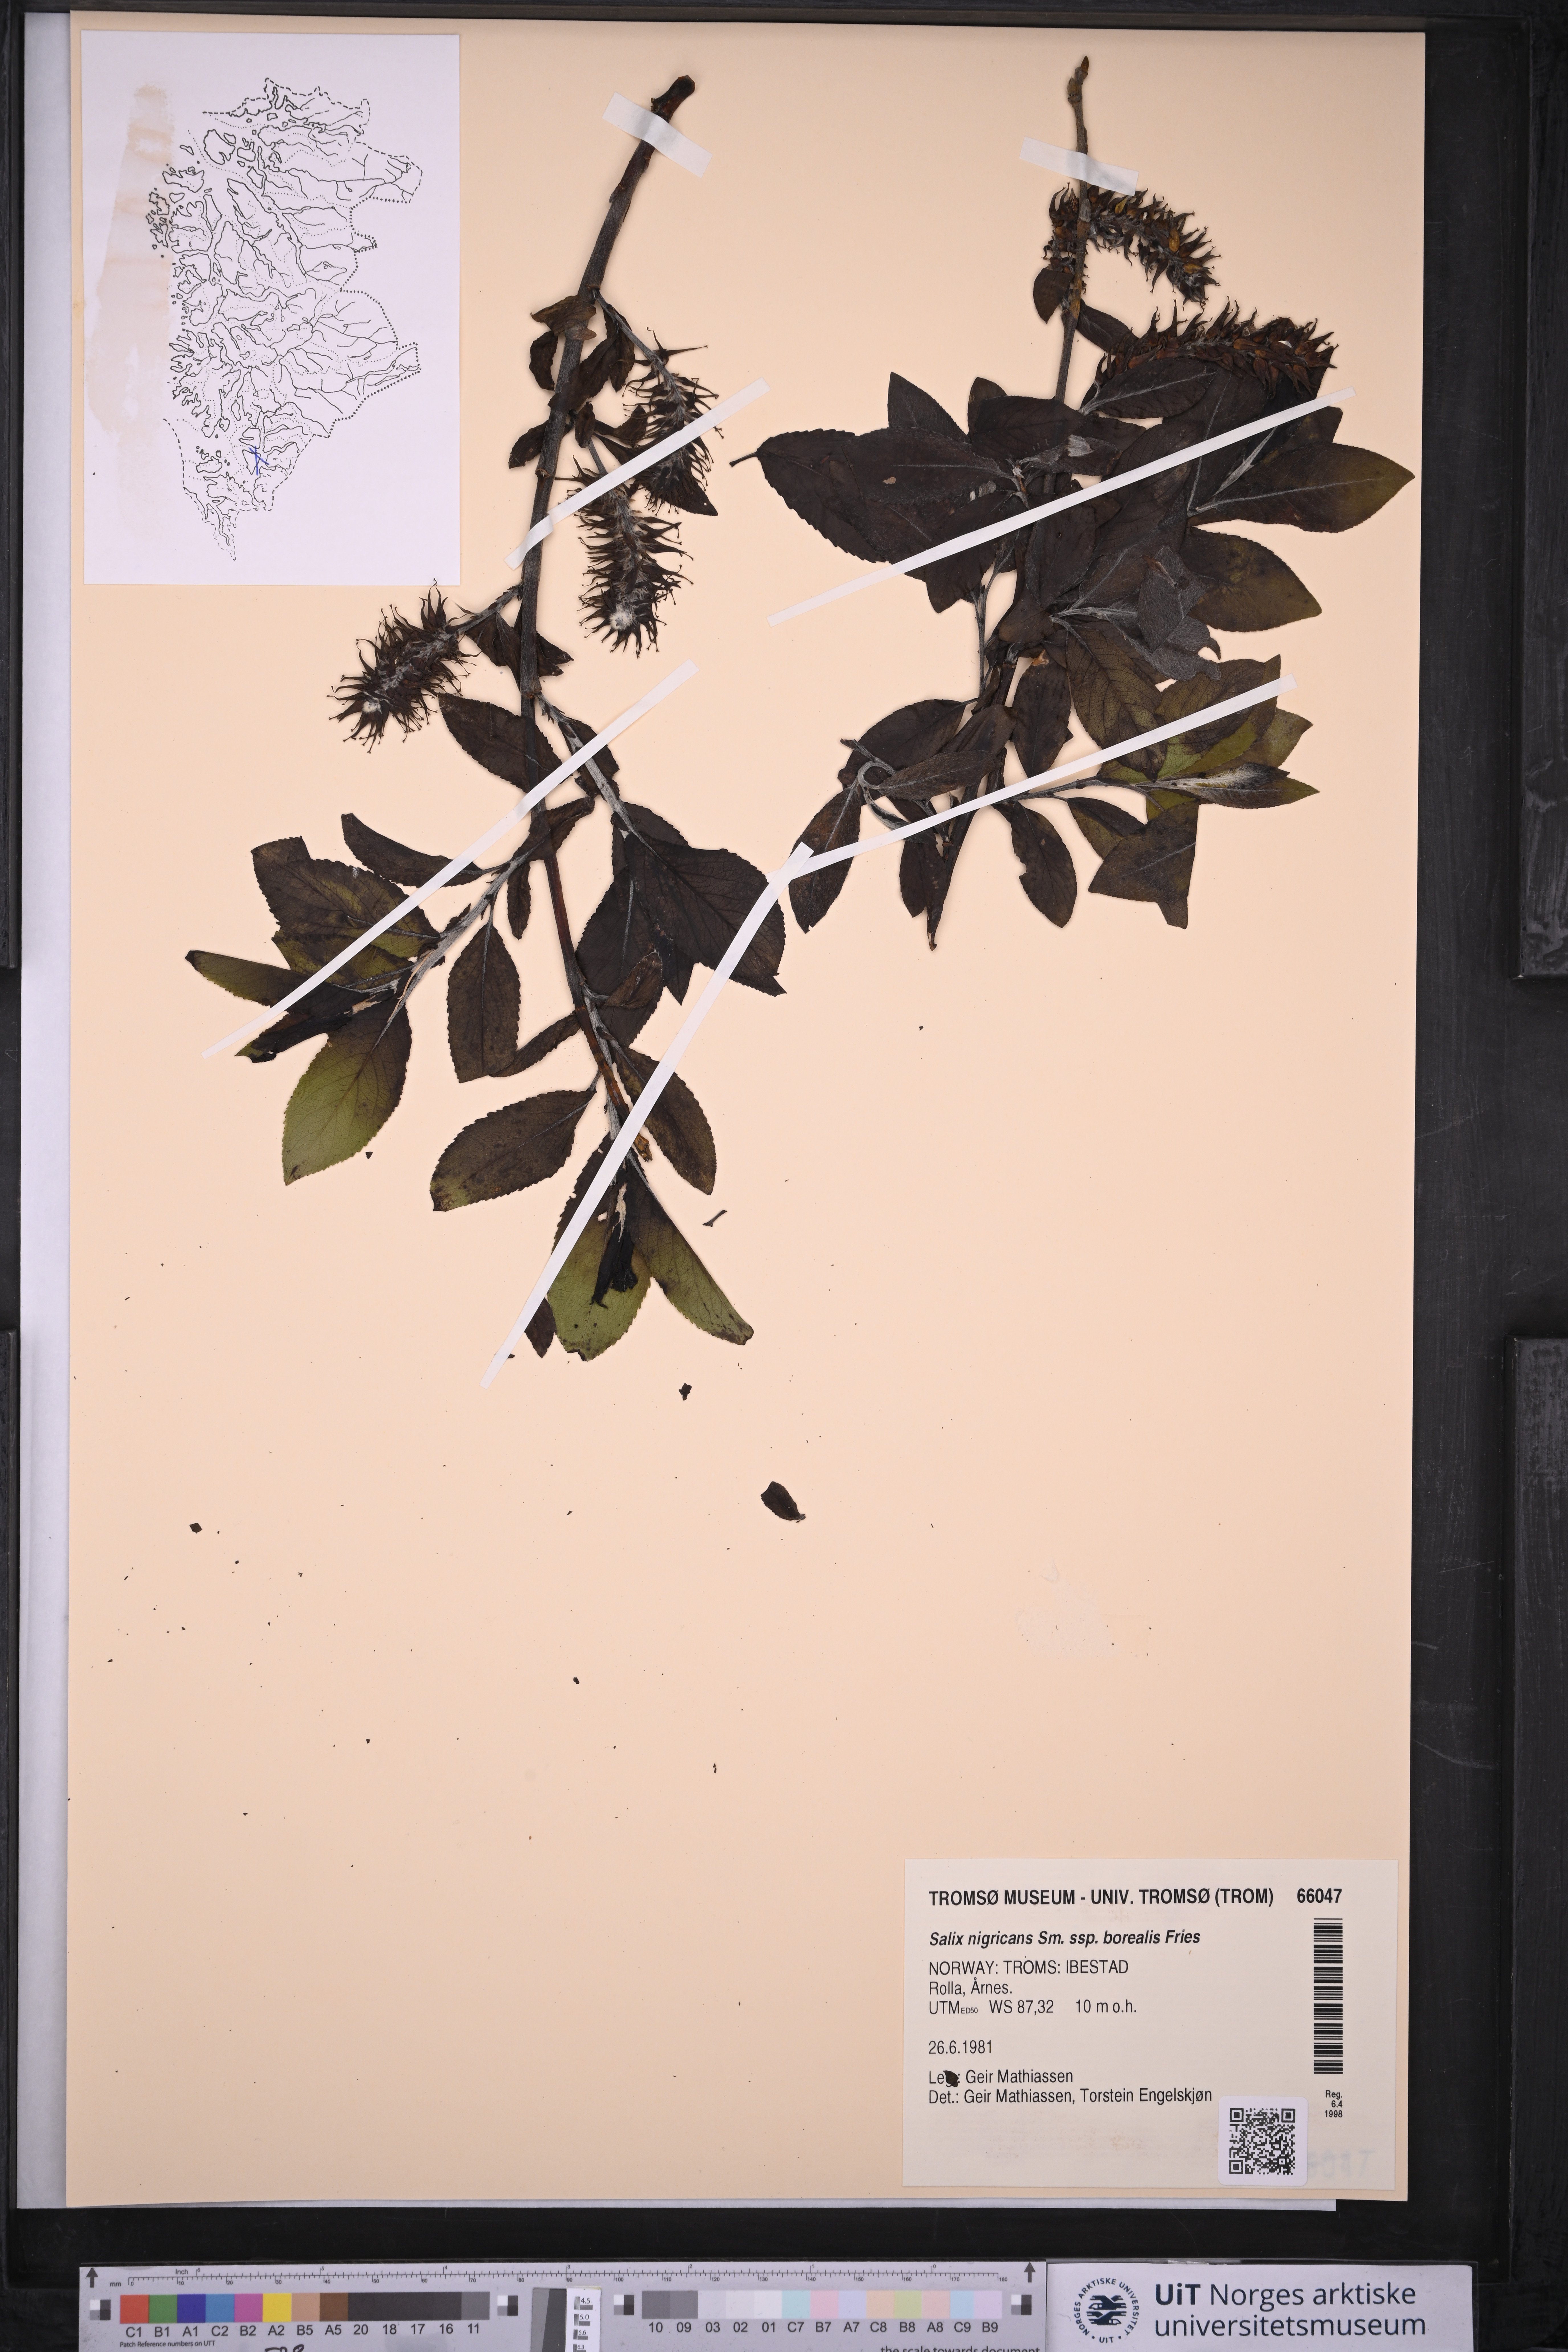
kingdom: Plantae
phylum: Tracheophyta
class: Magnoliopsida
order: Malpighiales
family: Salicaceae
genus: Salix
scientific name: Salix myrsinifolia
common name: Dark-leaved willow
